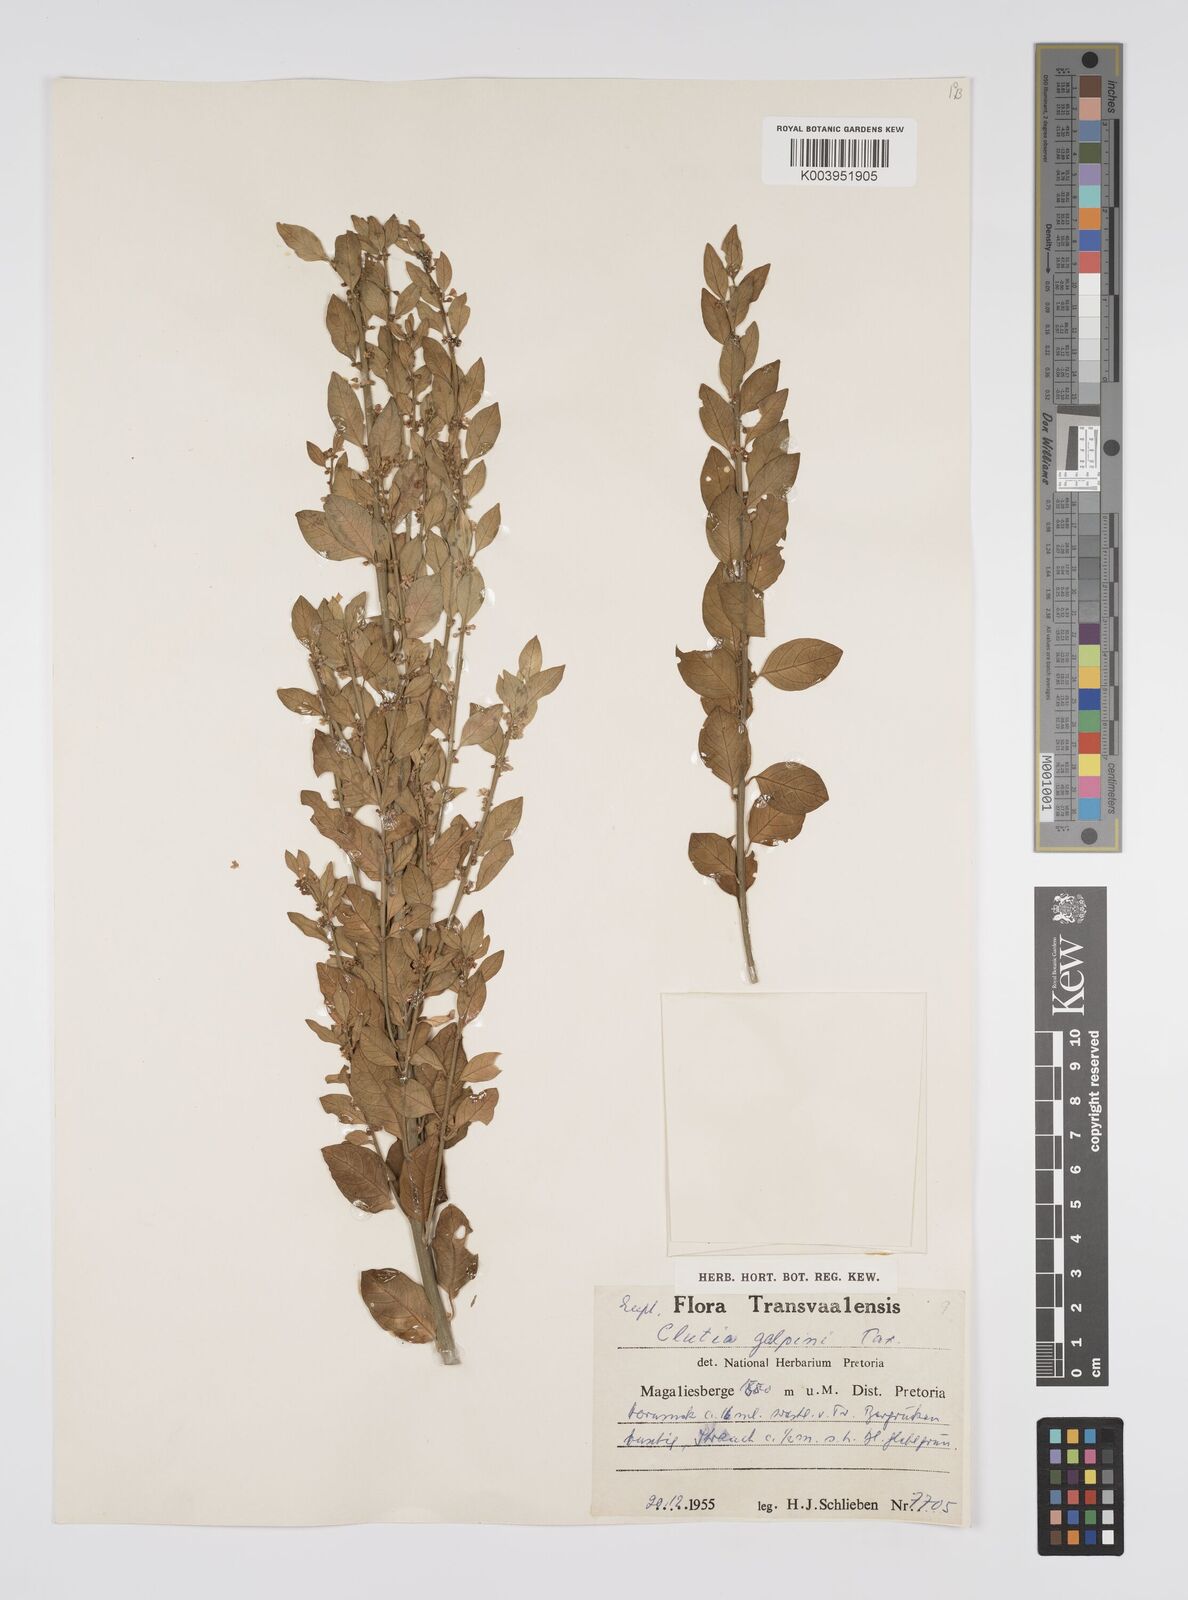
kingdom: Plantae
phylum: Tracheophyta
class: Magnoliopsida
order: Malpighiales
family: Peraceae
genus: Clutia
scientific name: Clutia galpinii
